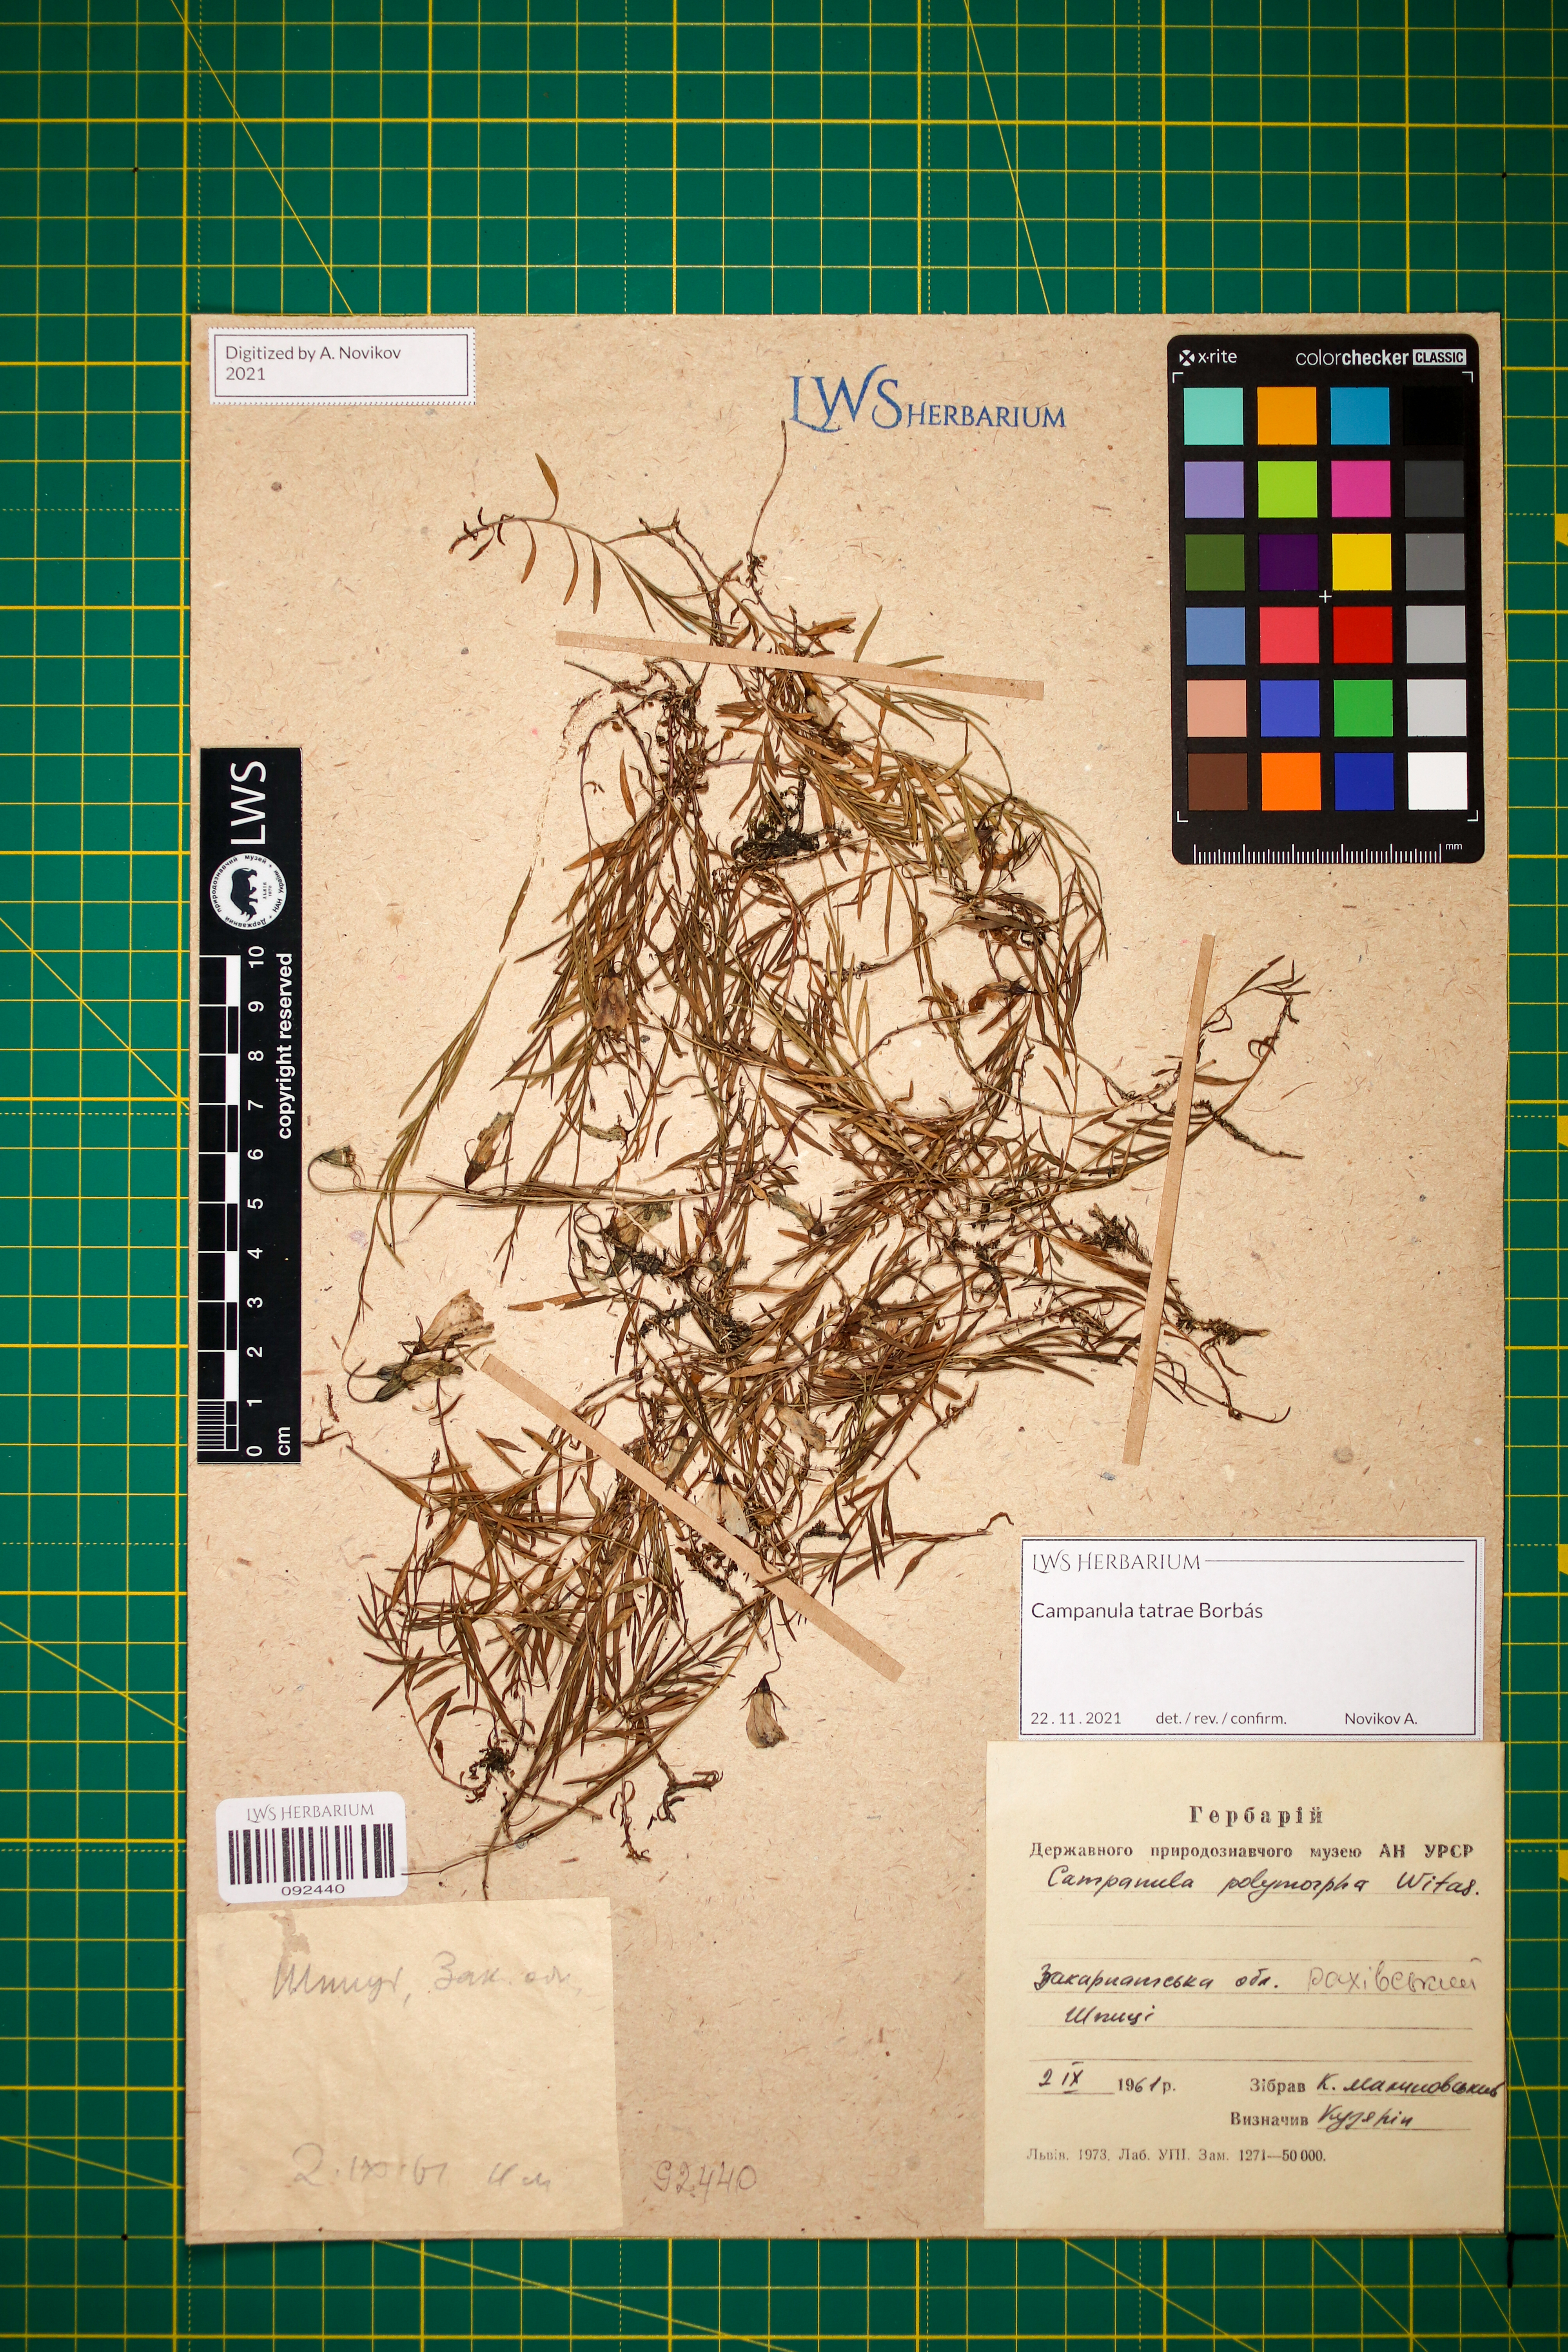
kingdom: Plantae
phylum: Tracheophyta
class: Magnoliopsida
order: Asterales
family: Campanulaceae
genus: Campanula
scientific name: Campanula tatrae
